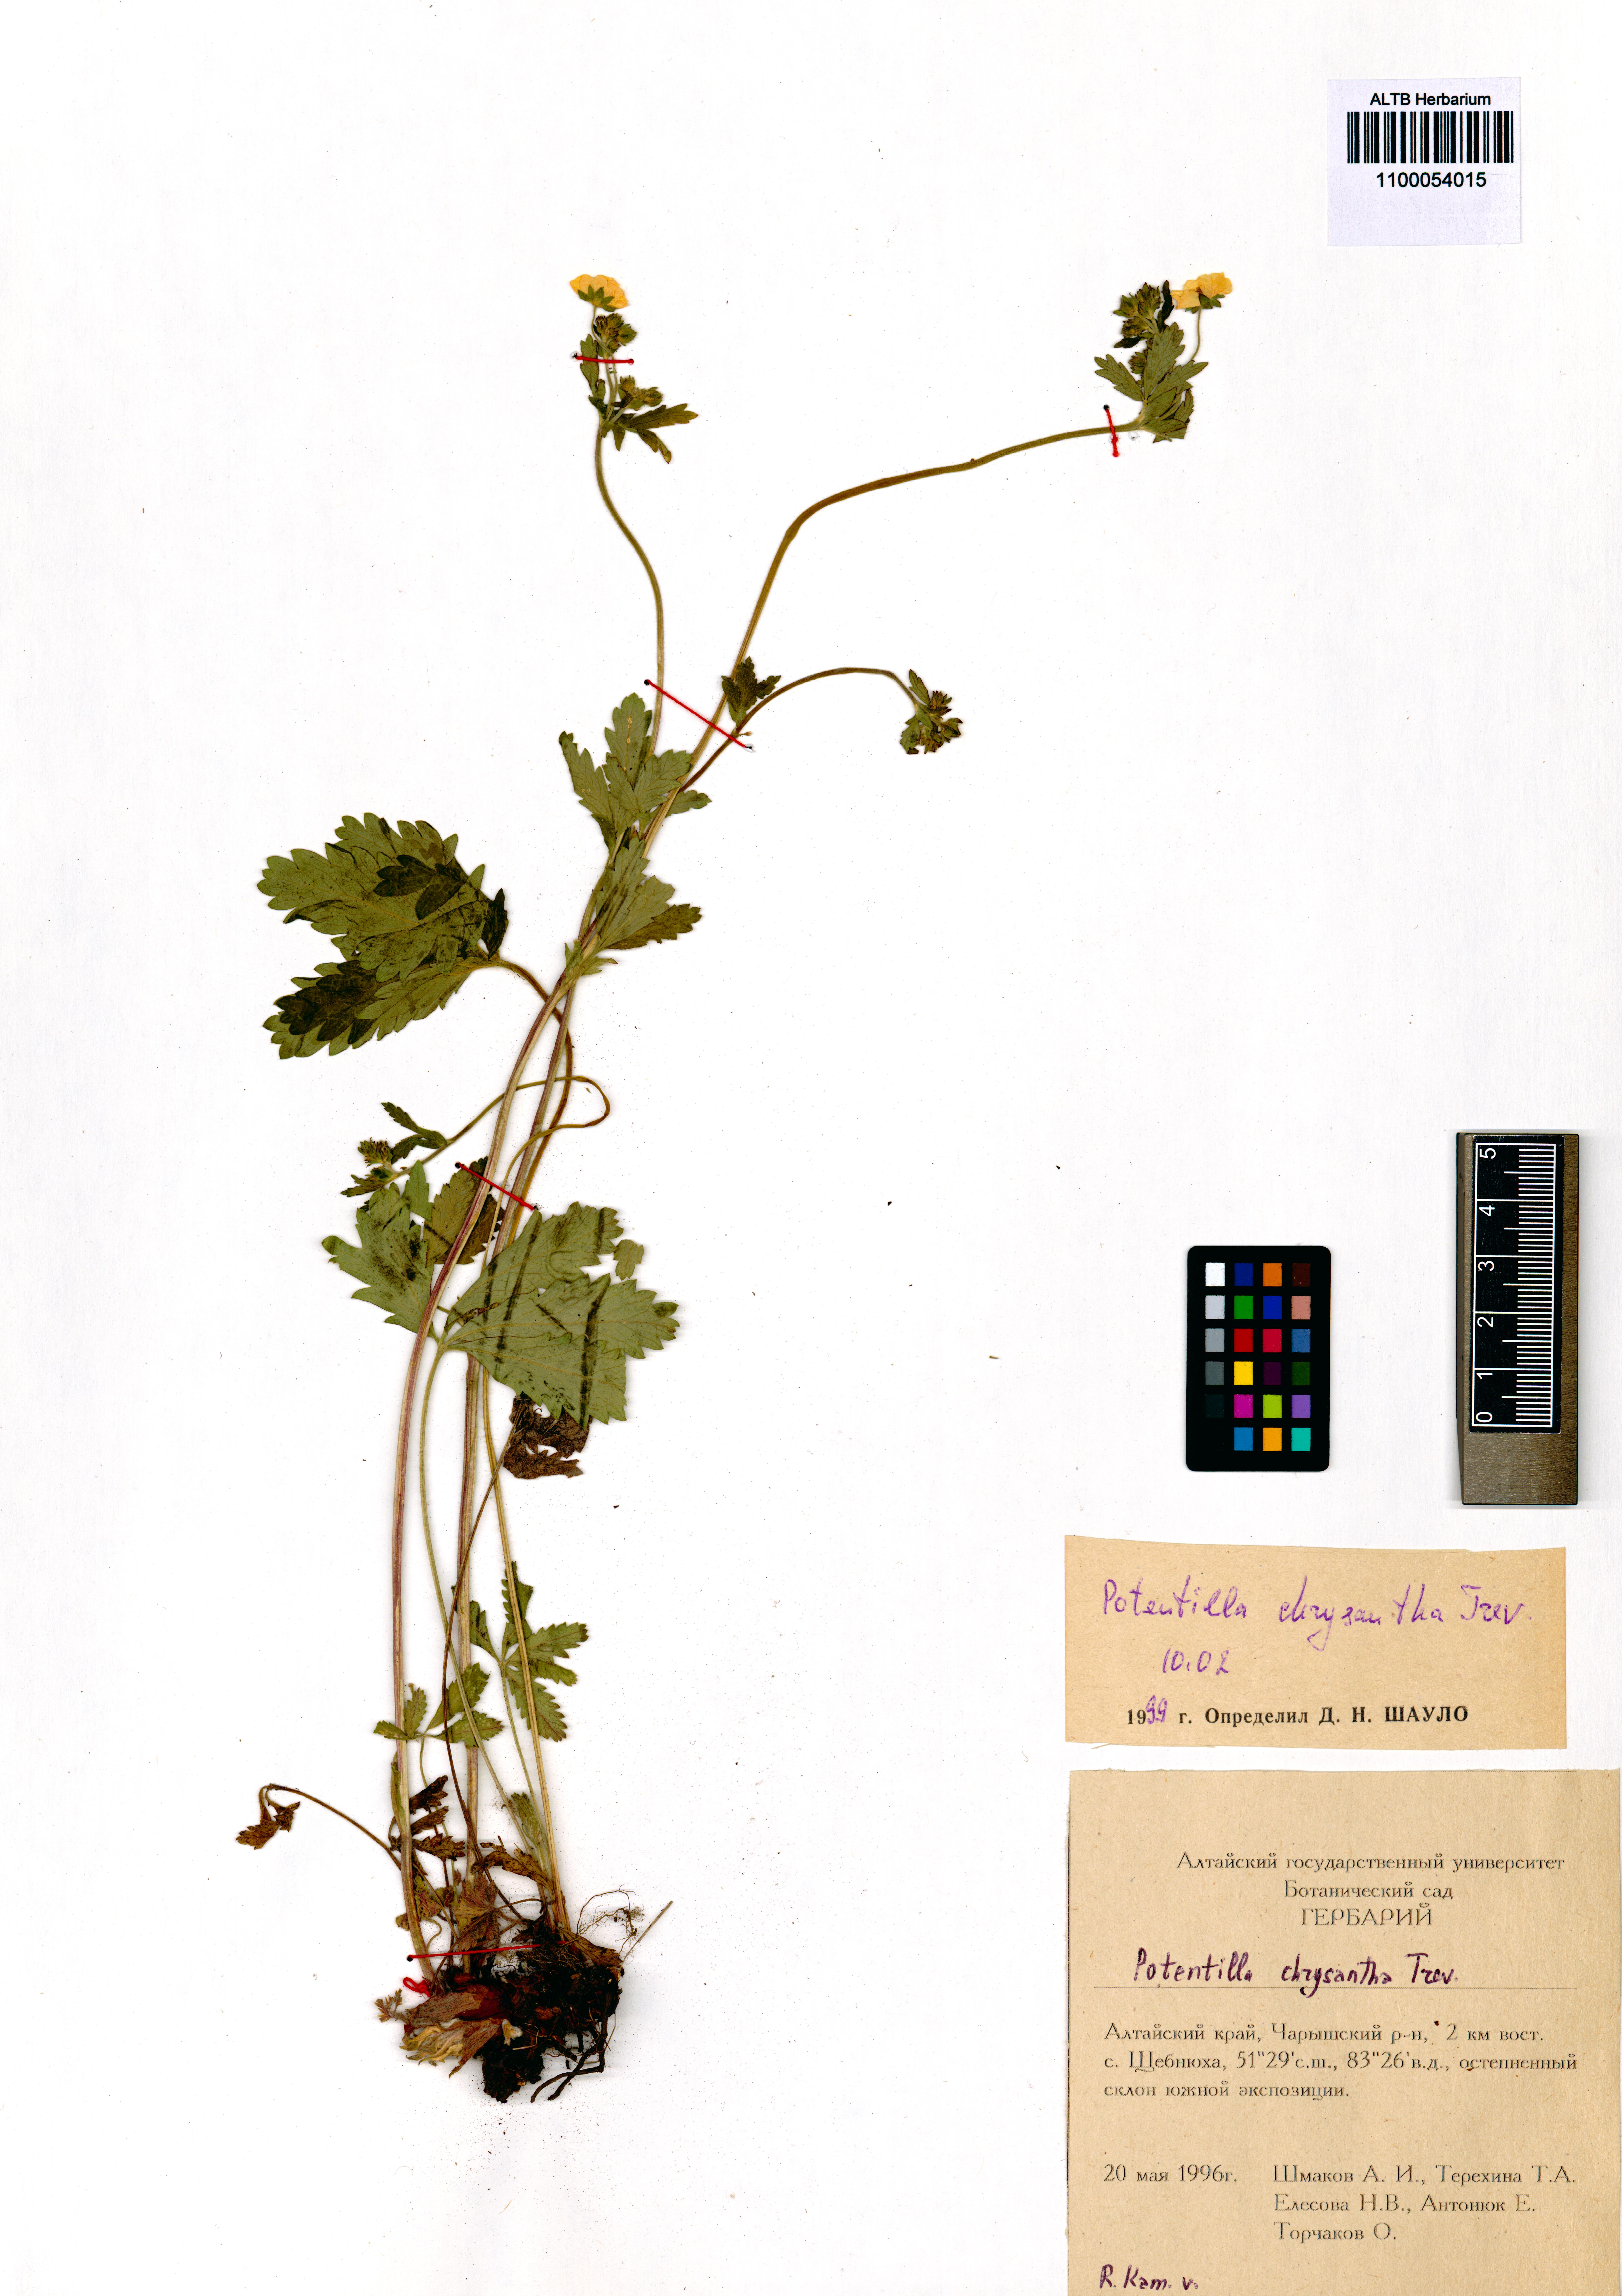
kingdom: Plantae
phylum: Tracheophyta
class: Magnoliopsida
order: Rosales
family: Rosaceae
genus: Potentilla
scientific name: Potentilla chrysantha
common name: Thuringian cinquefoil
